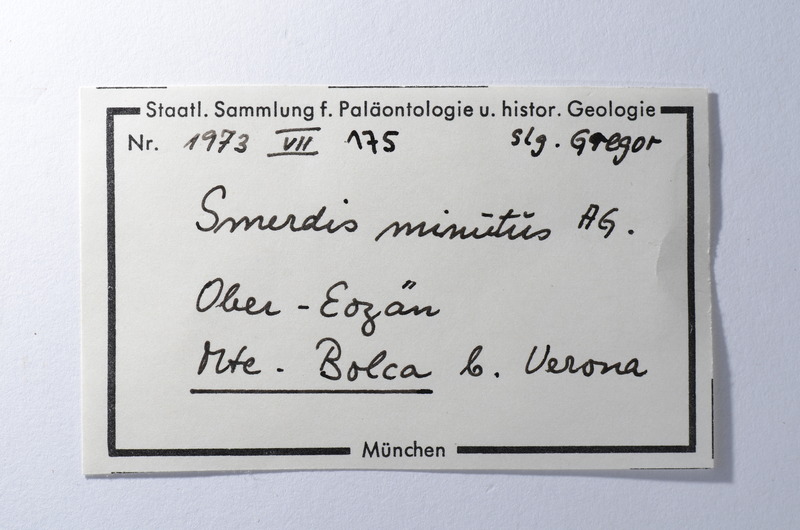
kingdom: Animalia
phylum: Chordata
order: Perciformes
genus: Smerdis
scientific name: Smerdis Perca minuta
